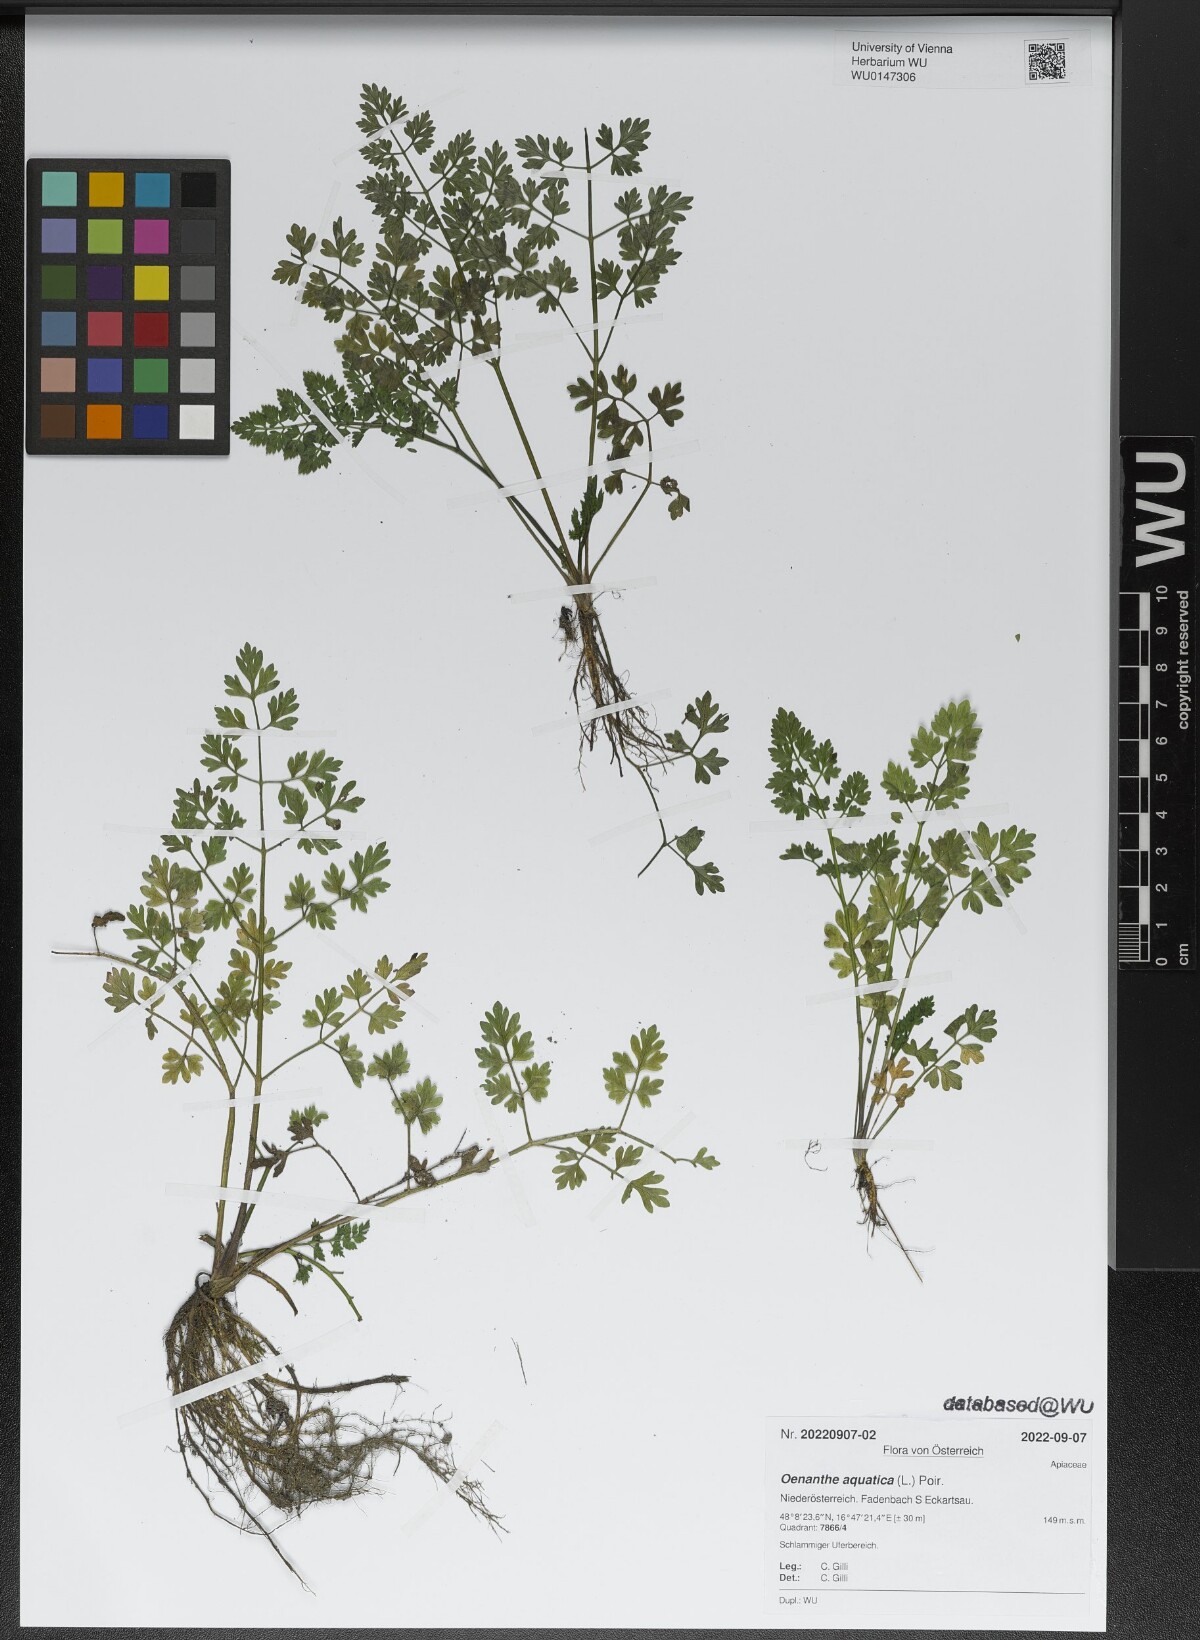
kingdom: Plantae
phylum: Tracheophyta
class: Magnoliopsida
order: Apiales
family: Apiaceae
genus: Oenanthe
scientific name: Oenanthe aquatica
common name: Fine-leaved water-dropwort
